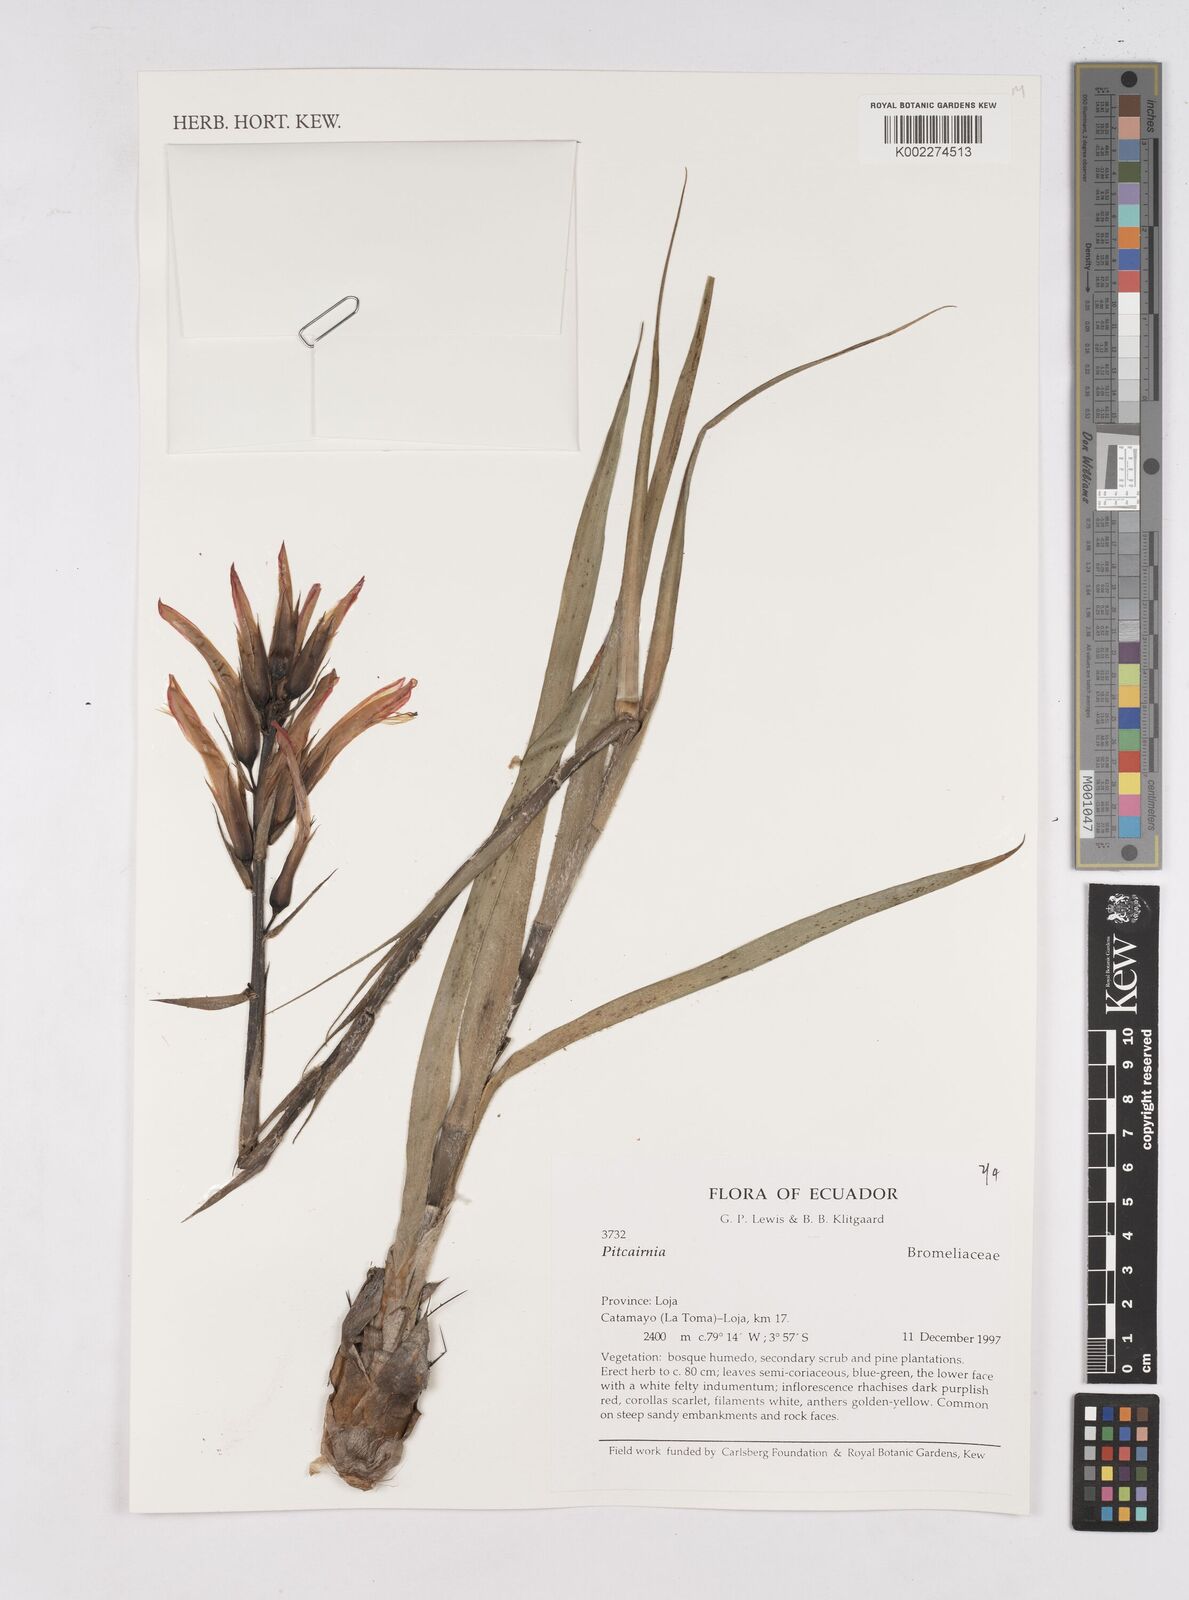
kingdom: Plantae
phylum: Tracheophyta
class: Liliopsida
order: Poales
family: Bromeliaceae
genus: Pitcairnia
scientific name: Pitcairnia
